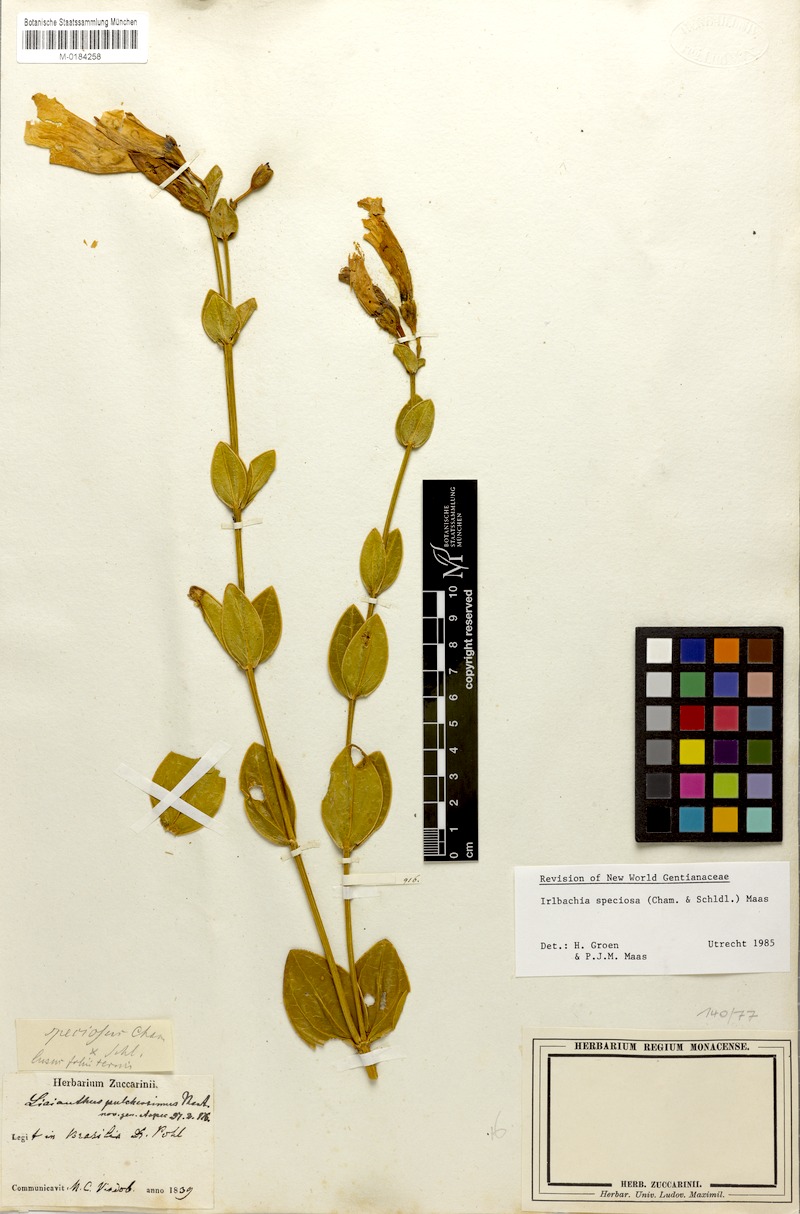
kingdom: Plantae
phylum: Tracheophyta
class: Magnoliopsida
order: Gentianales
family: Gentianaceae
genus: Calolisianthus
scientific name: Calolisianthus speciosus
